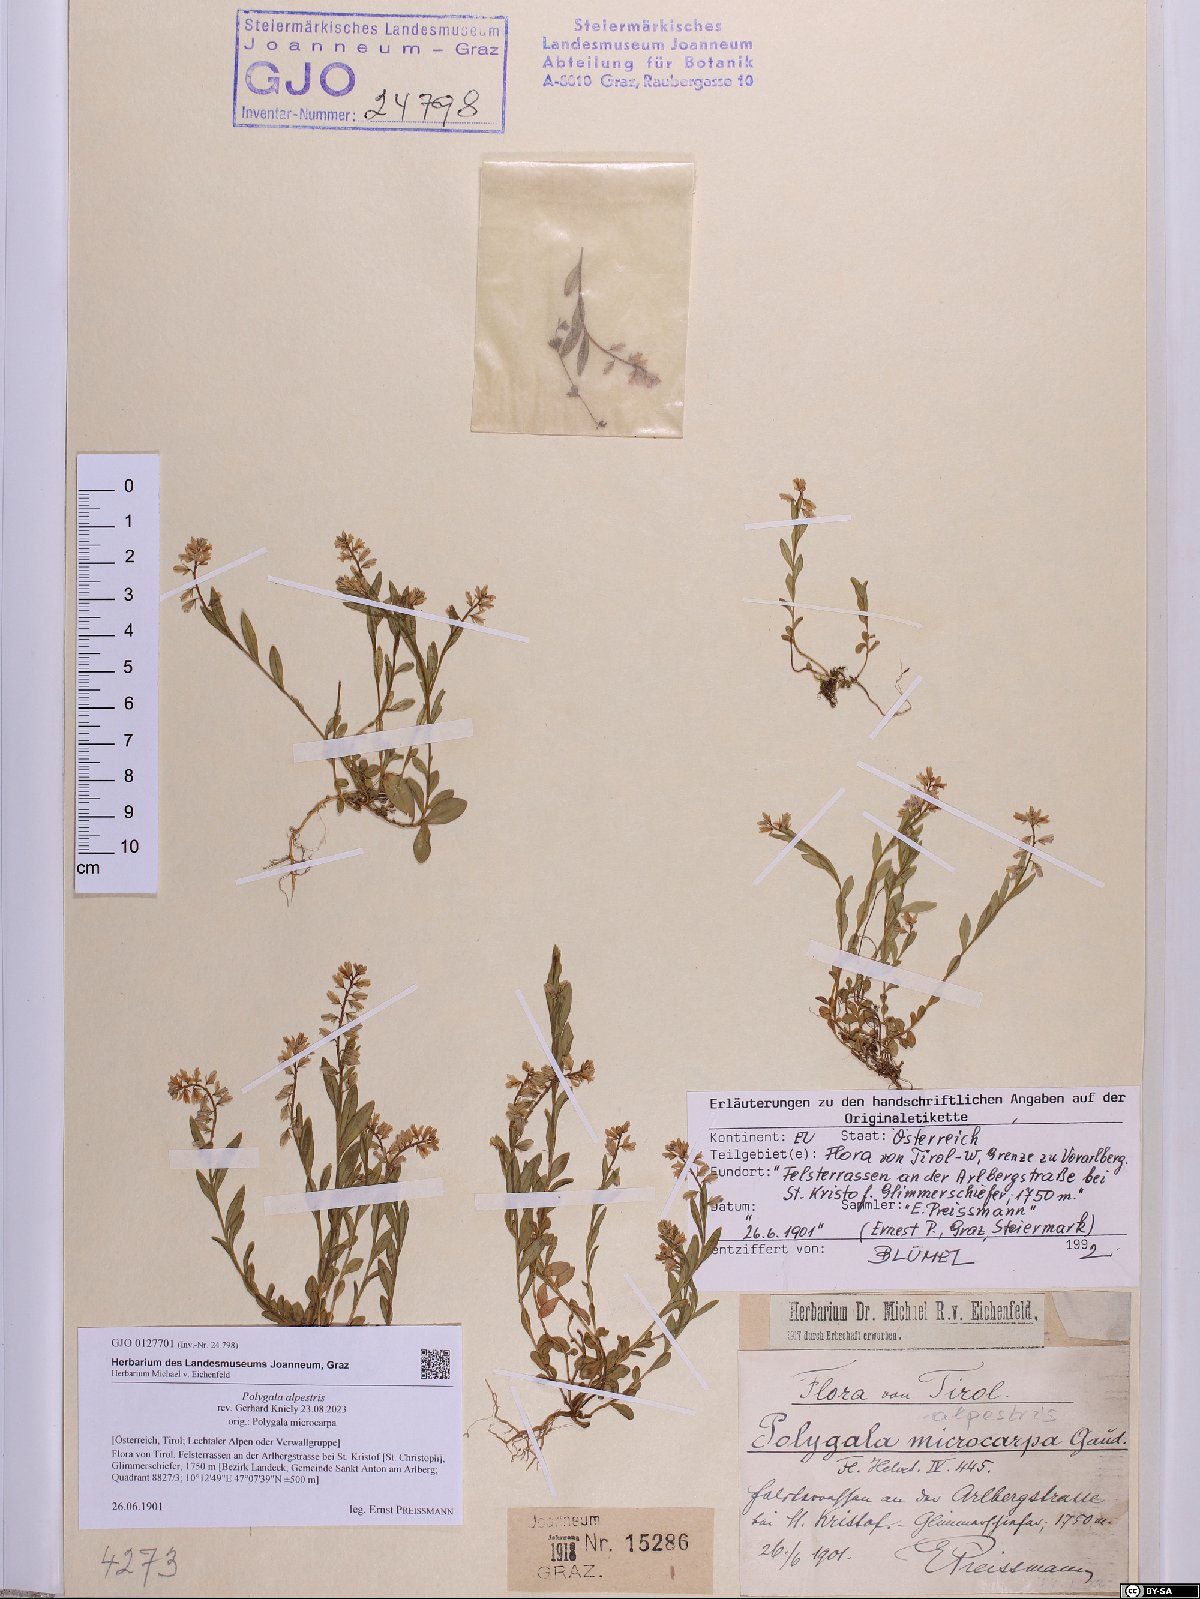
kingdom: Plantae
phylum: Tracheophyta
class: Magnoliopsida
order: Fabales
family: Polygalaceae
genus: Polygala
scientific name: Polygala alpestris
